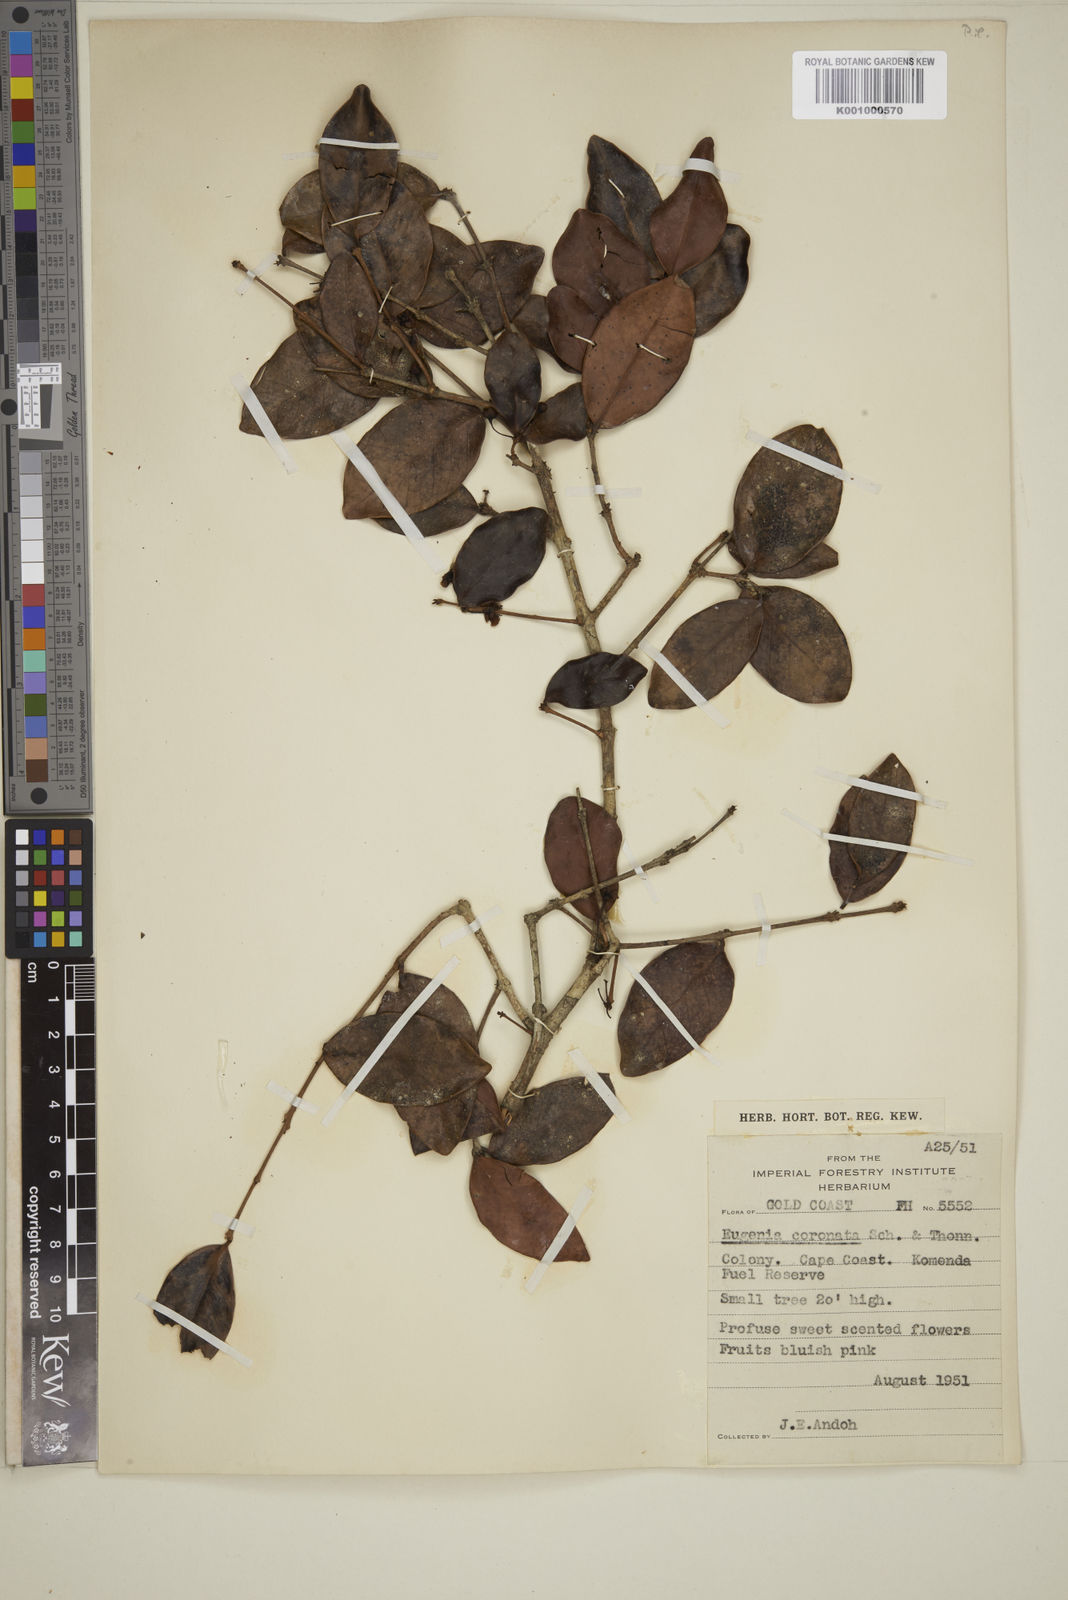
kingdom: Plantae
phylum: Tracheophyta
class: Magnoliopsida
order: Myrtales
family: Myrtaceae
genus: Eugenia
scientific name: Eugenia coronata
